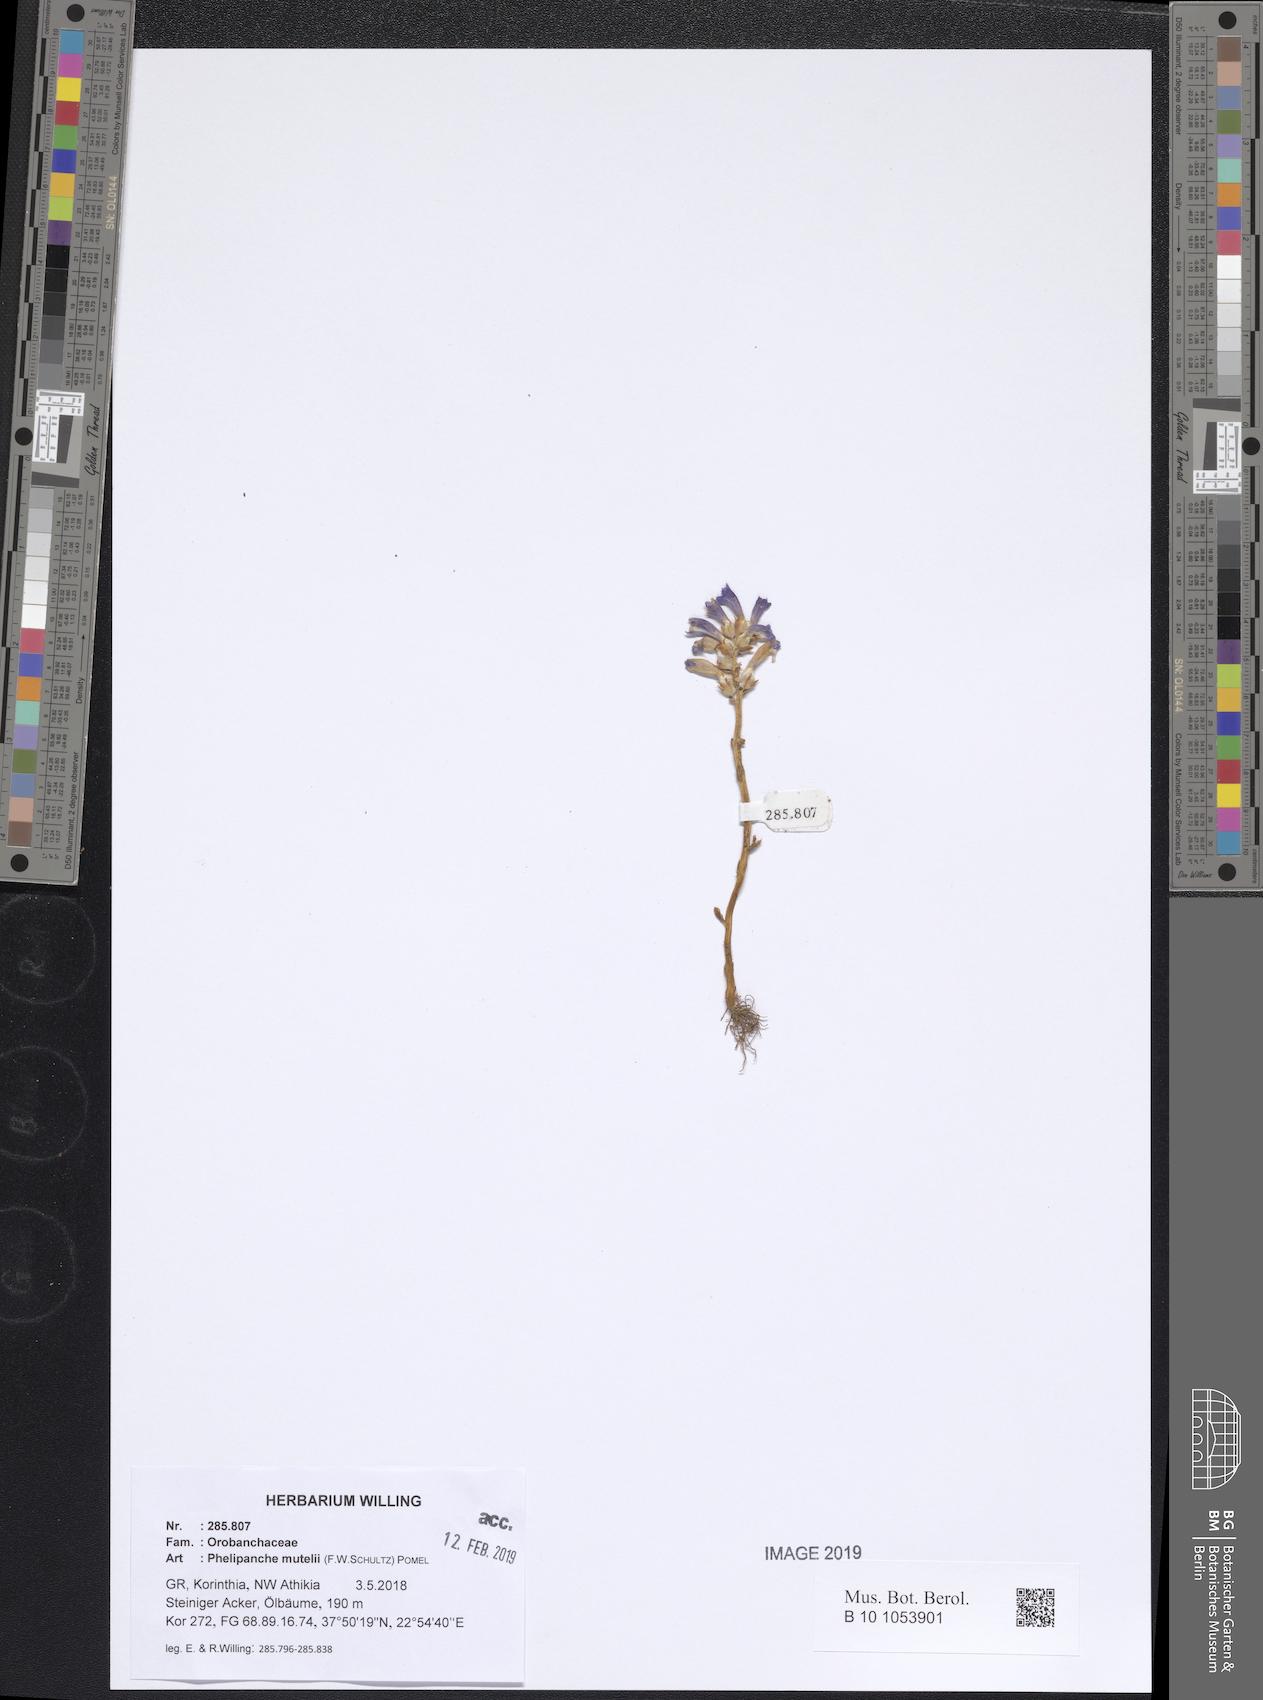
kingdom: Plantae
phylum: Tracheophyta
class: Magnoliopsida
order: Lamiales
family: Orobanchaceae
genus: Phelipanche
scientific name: Phelipanche mutelii
